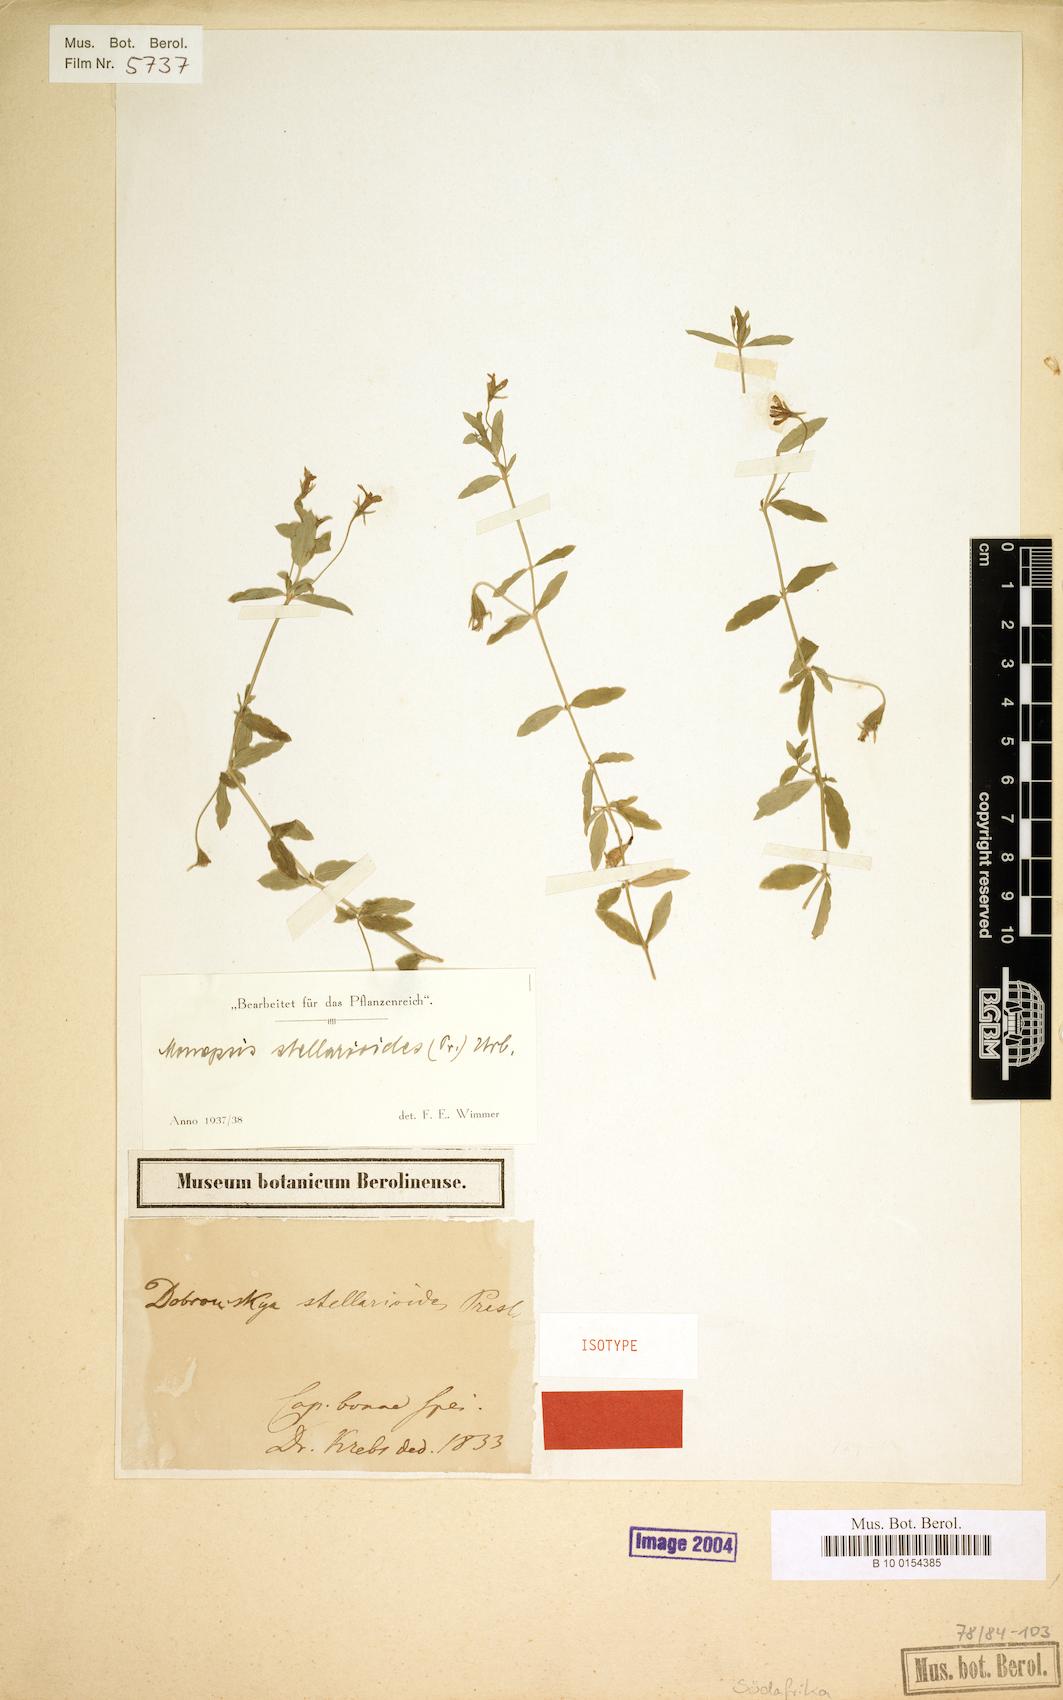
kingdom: Plantae
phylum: Tracheophyta
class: Magnoliopsida
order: Asterales
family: Campanulaceae
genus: Monopsis
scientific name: Monopsis stellarioides
